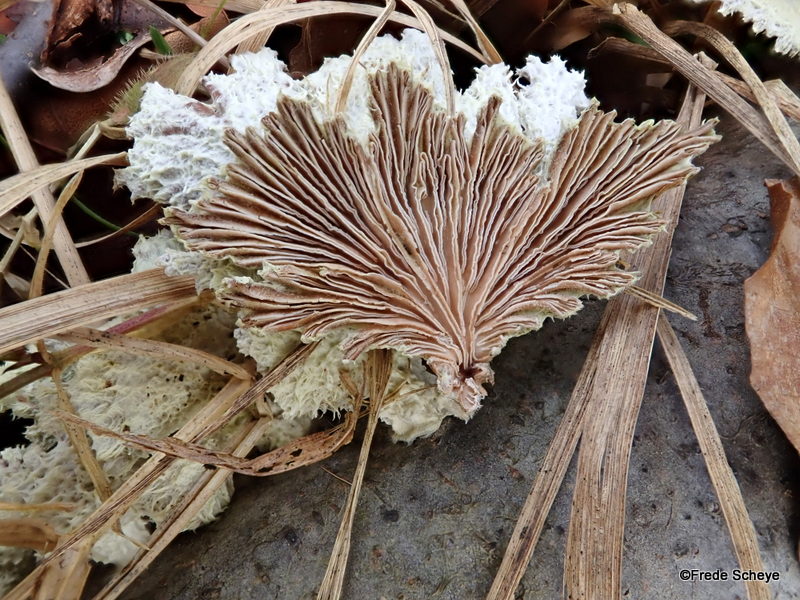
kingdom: Fungi
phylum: Basidiomycota
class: Agaricomycetes
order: Agaricales
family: Schizophyllaceae
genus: Schizophyllum
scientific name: Schizophyllum commune
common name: kløvblad
